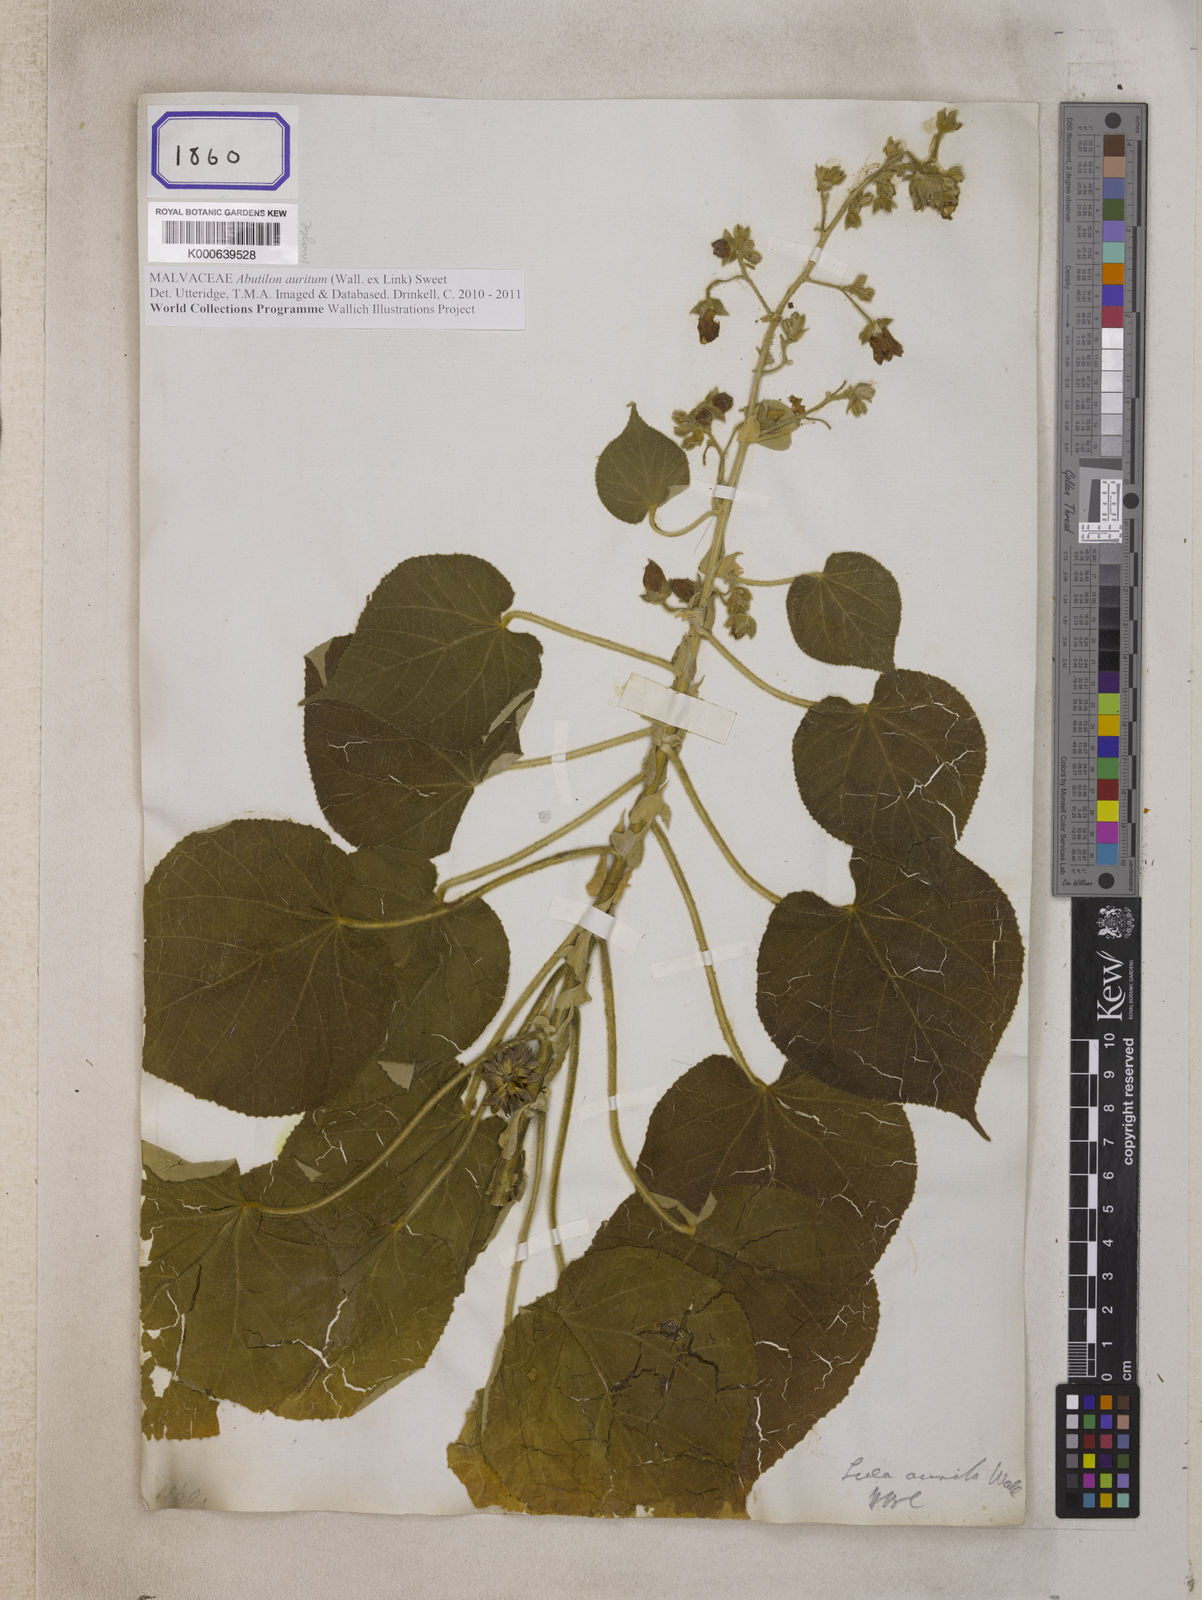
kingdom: Plantae
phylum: Tracheophyta
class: Magnoliopsida
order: Malvales
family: Malvaceae
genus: Abutilon
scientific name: Abutilon auritum
